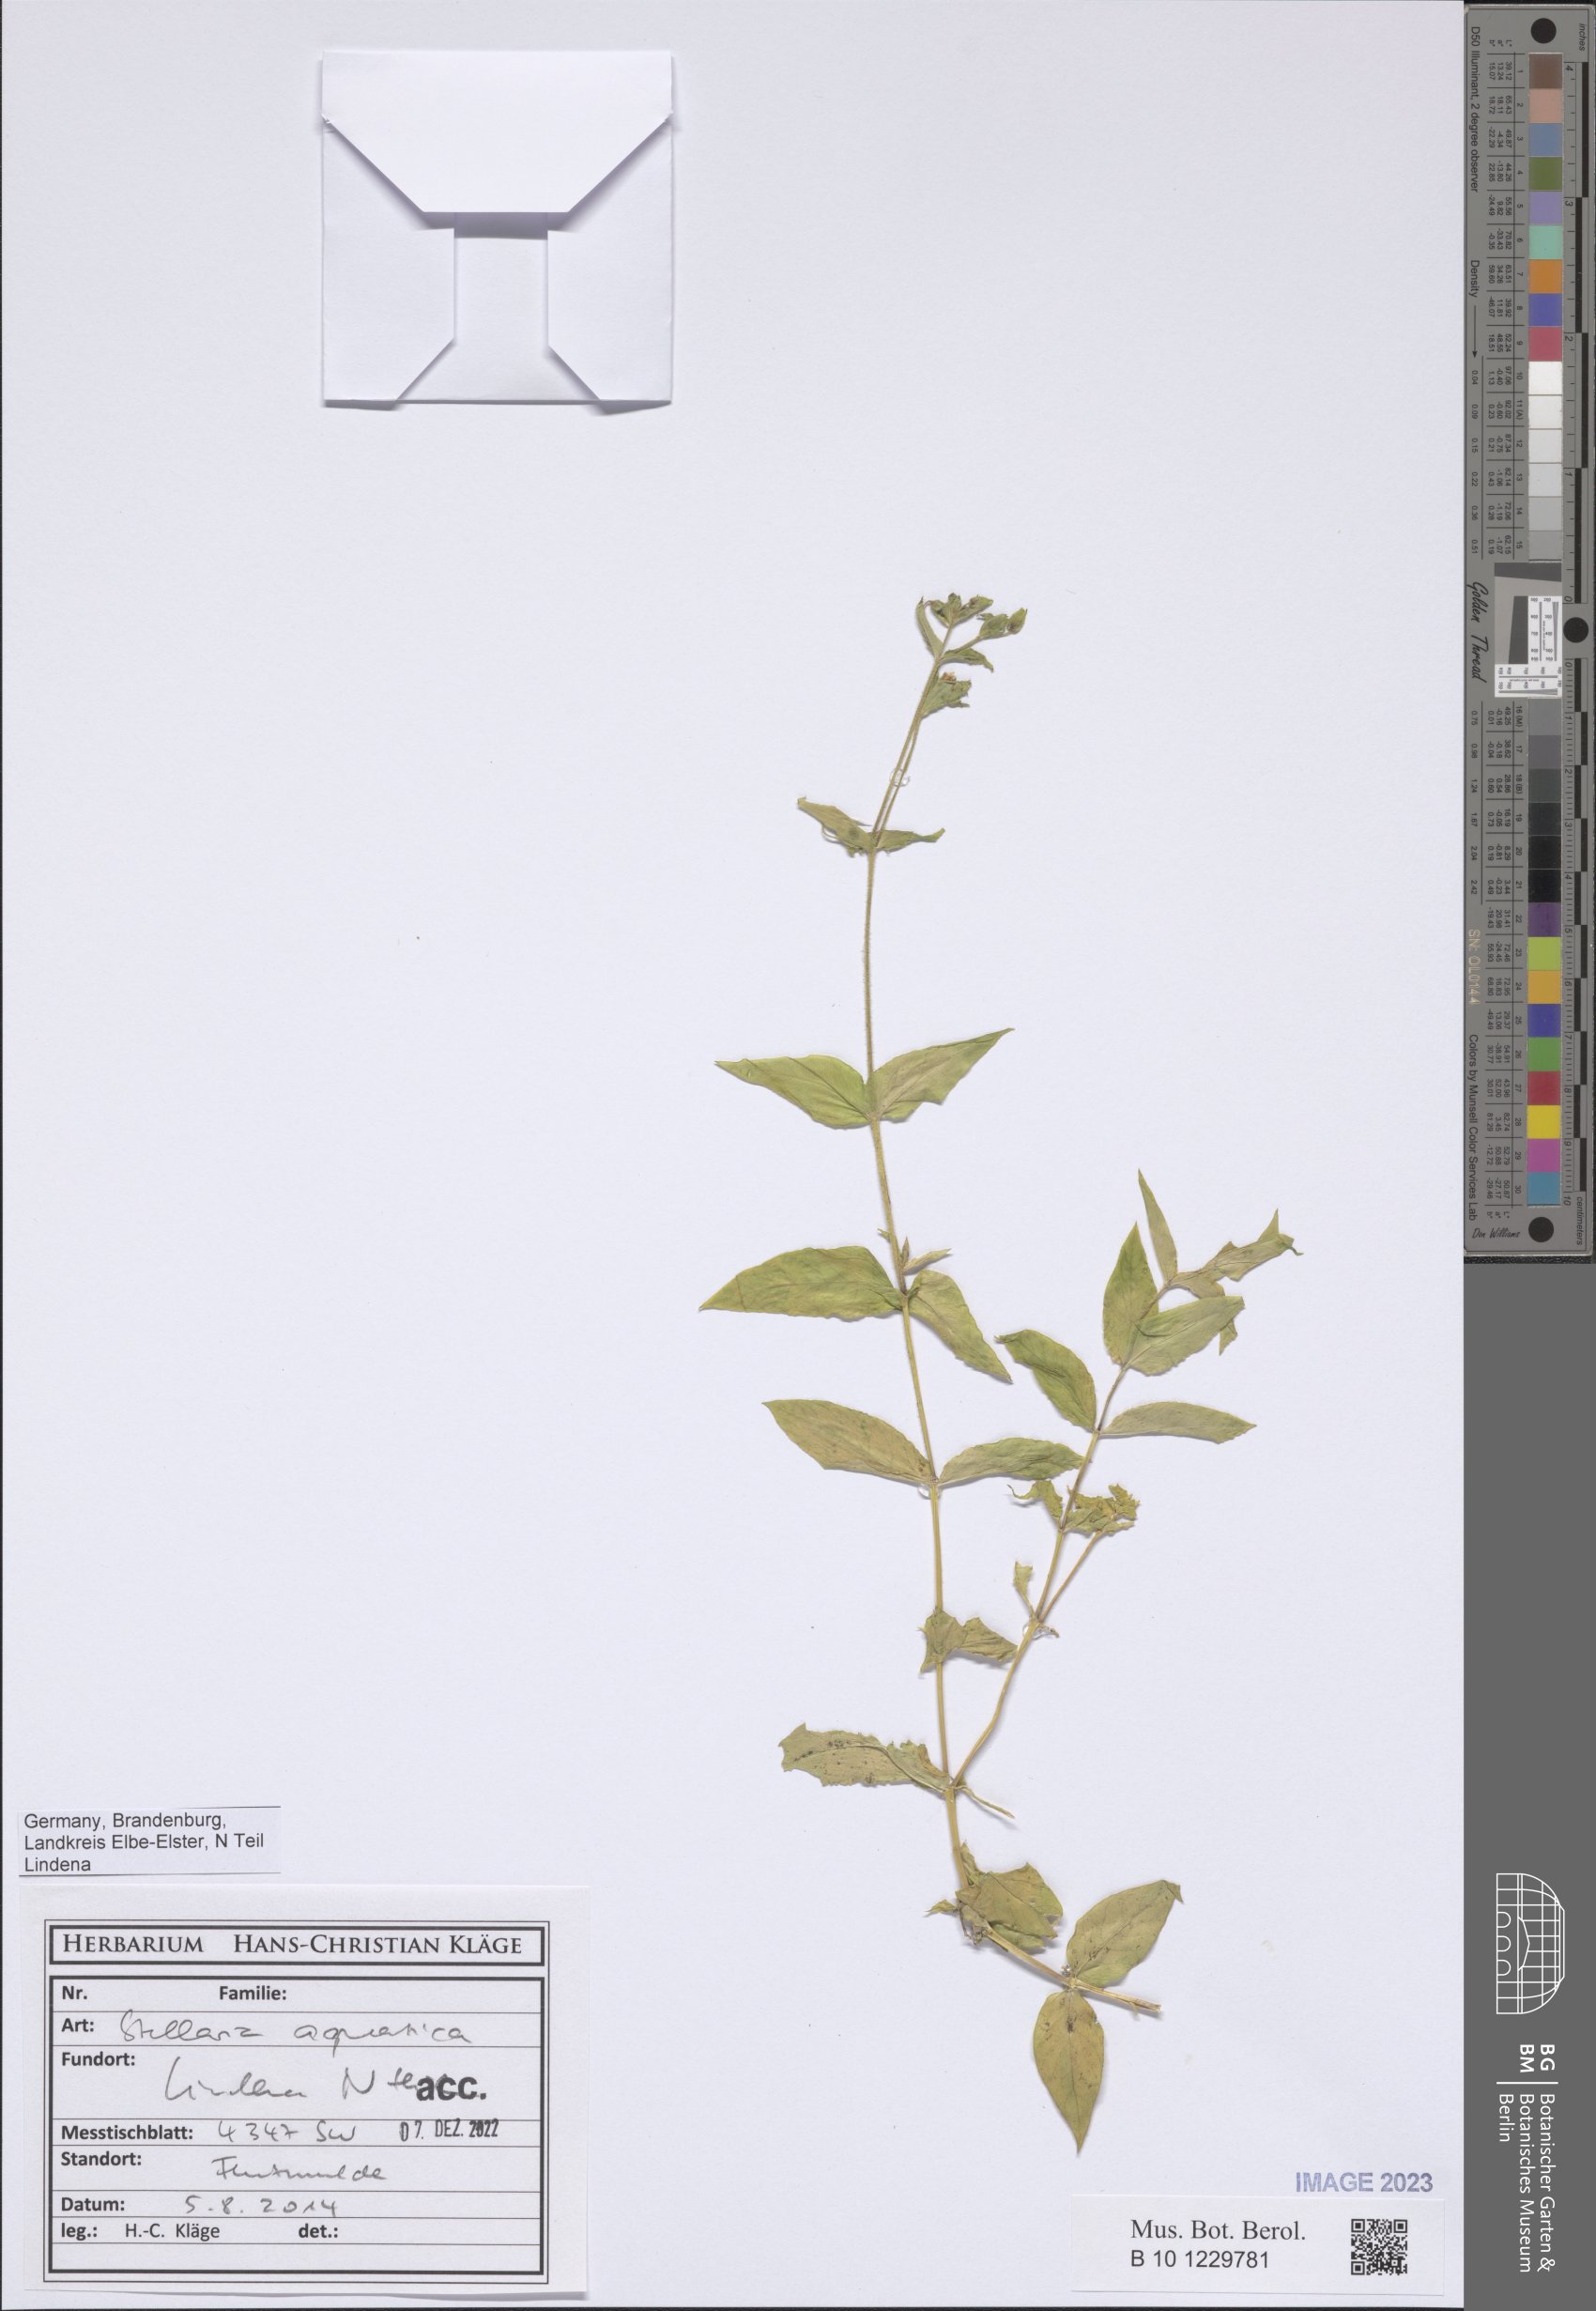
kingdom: Plantae
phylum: Tracheophyta
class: Magnoliopsida
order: Caryophyllales
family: Caryophyllaceae
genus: Stellaria
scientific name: Stellaria aquatica
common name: Water chickweed
